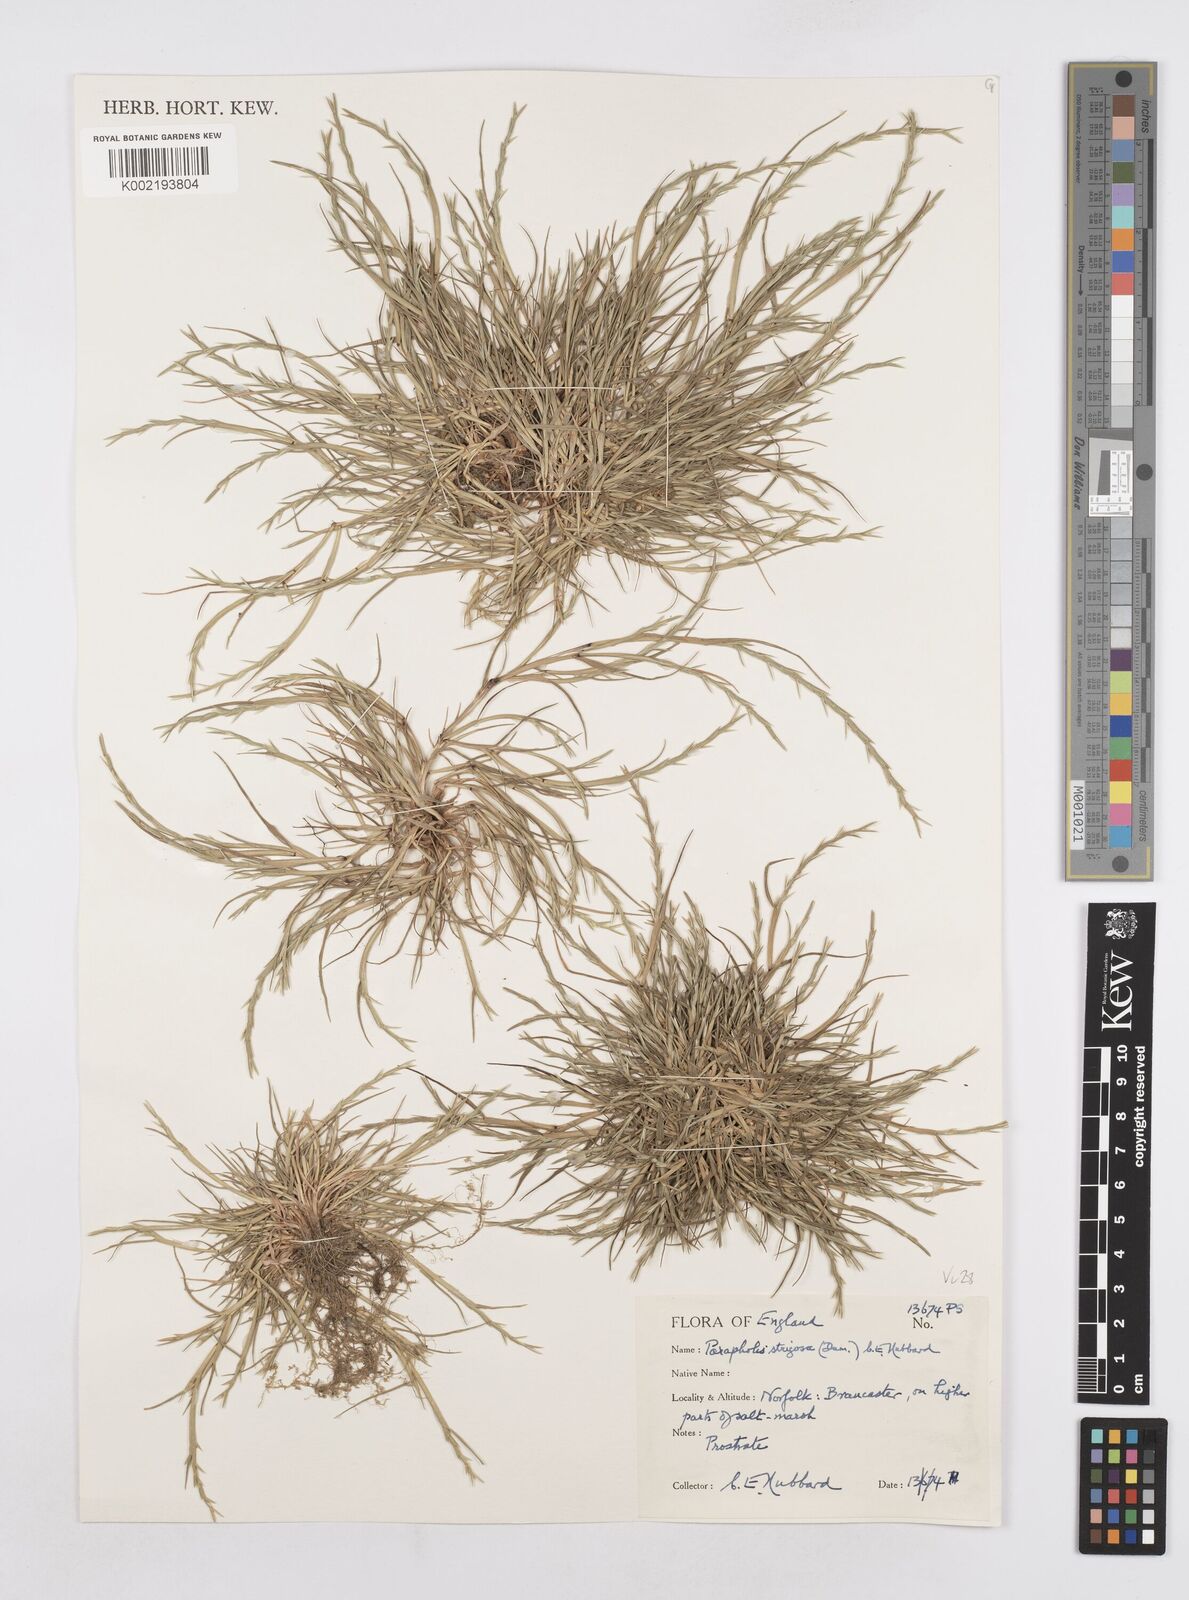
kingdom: Plantae
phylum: Tracheophyta
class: Liliopsida
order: Poales
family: Poaceae
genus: Parapholis
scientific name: Parapholis strigosa
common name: Hard-grass
